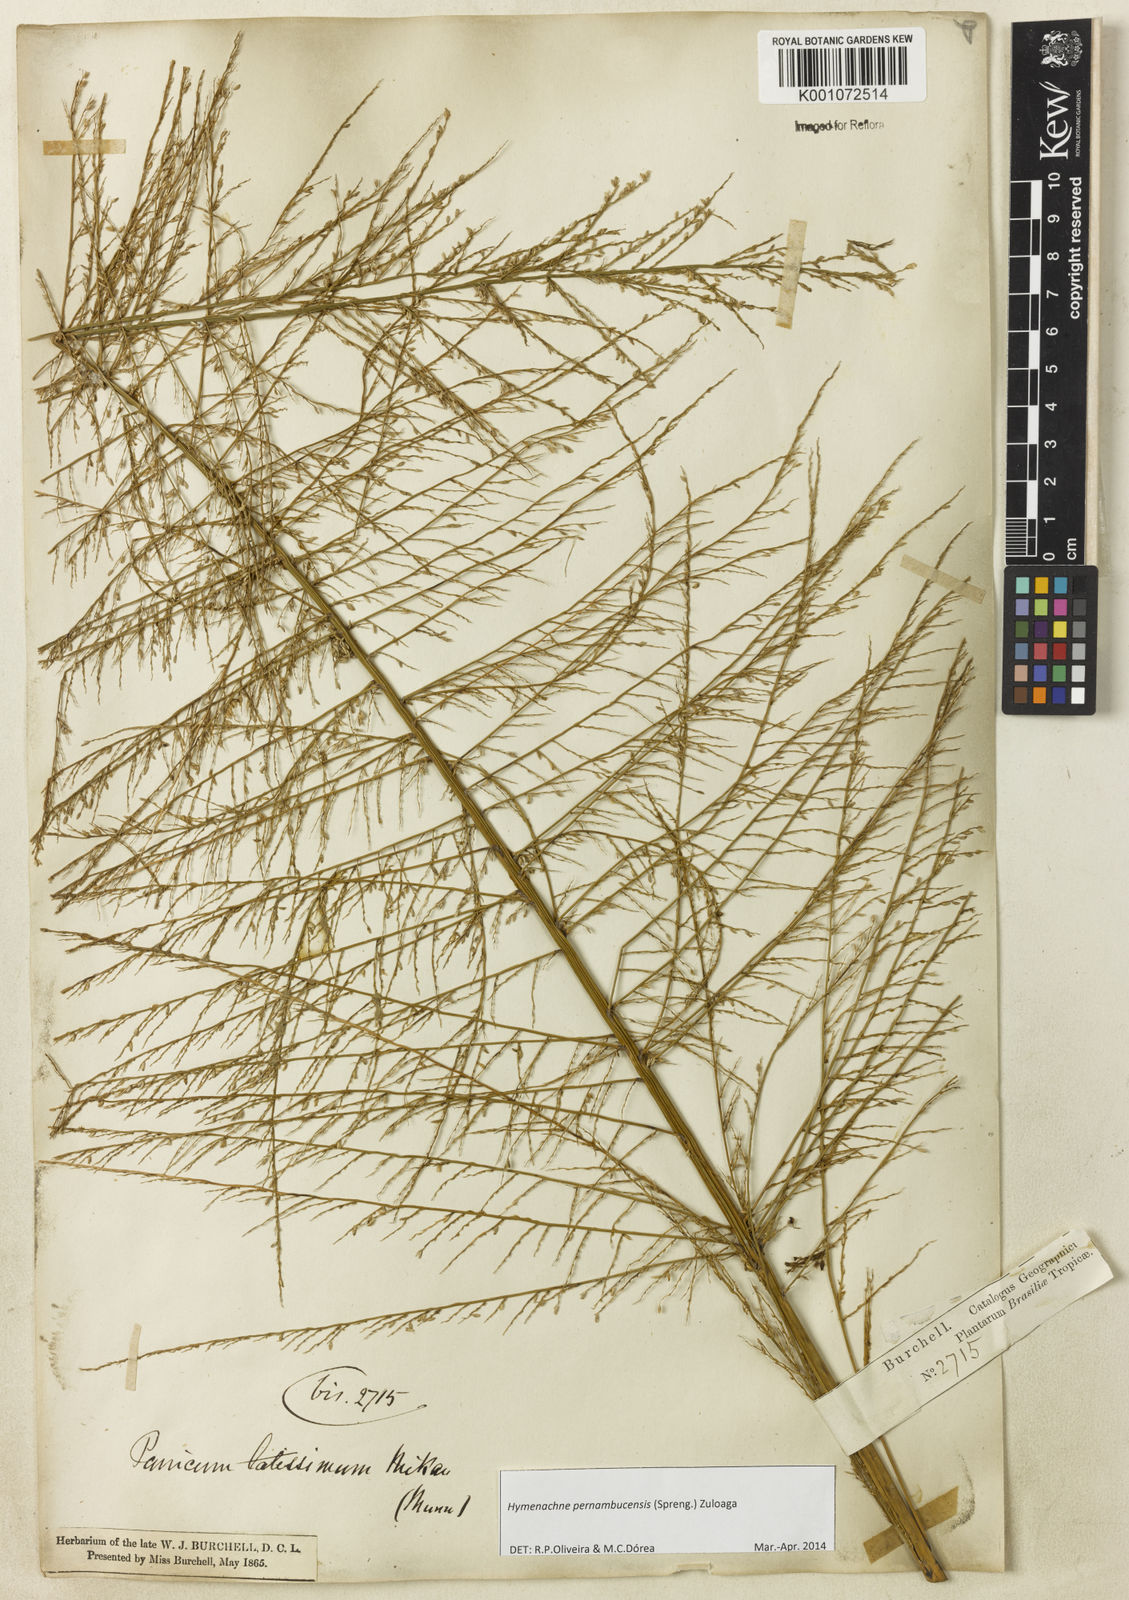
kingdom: Plantae
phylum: Tracheophyta
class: Liliopsida
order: Poales
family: Poaceae
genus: Hymenachne
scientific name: Hymenachne pernambucensis
